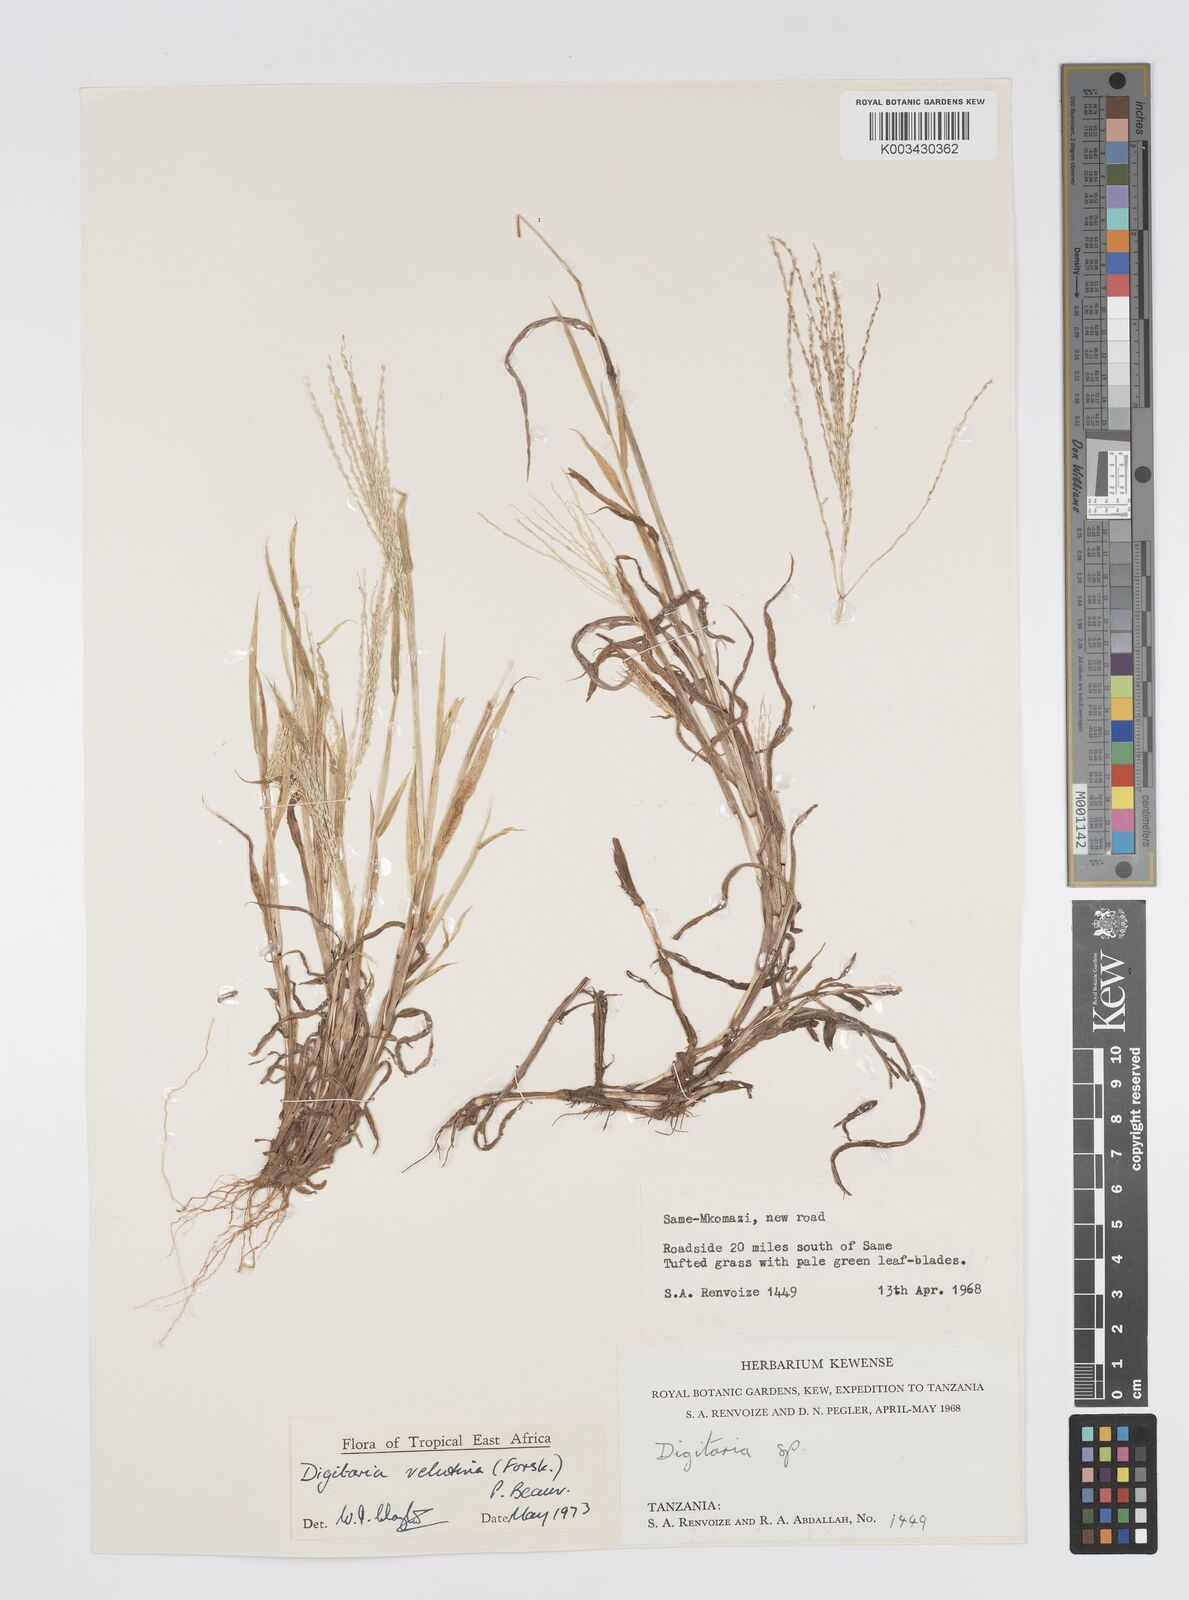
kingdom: Plantae
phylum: Tracheophyta
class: Liliopsida
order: Poales
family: Poaceae
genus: Digitaria
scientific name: Digitaria velutina
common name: Long-plume finger grass
